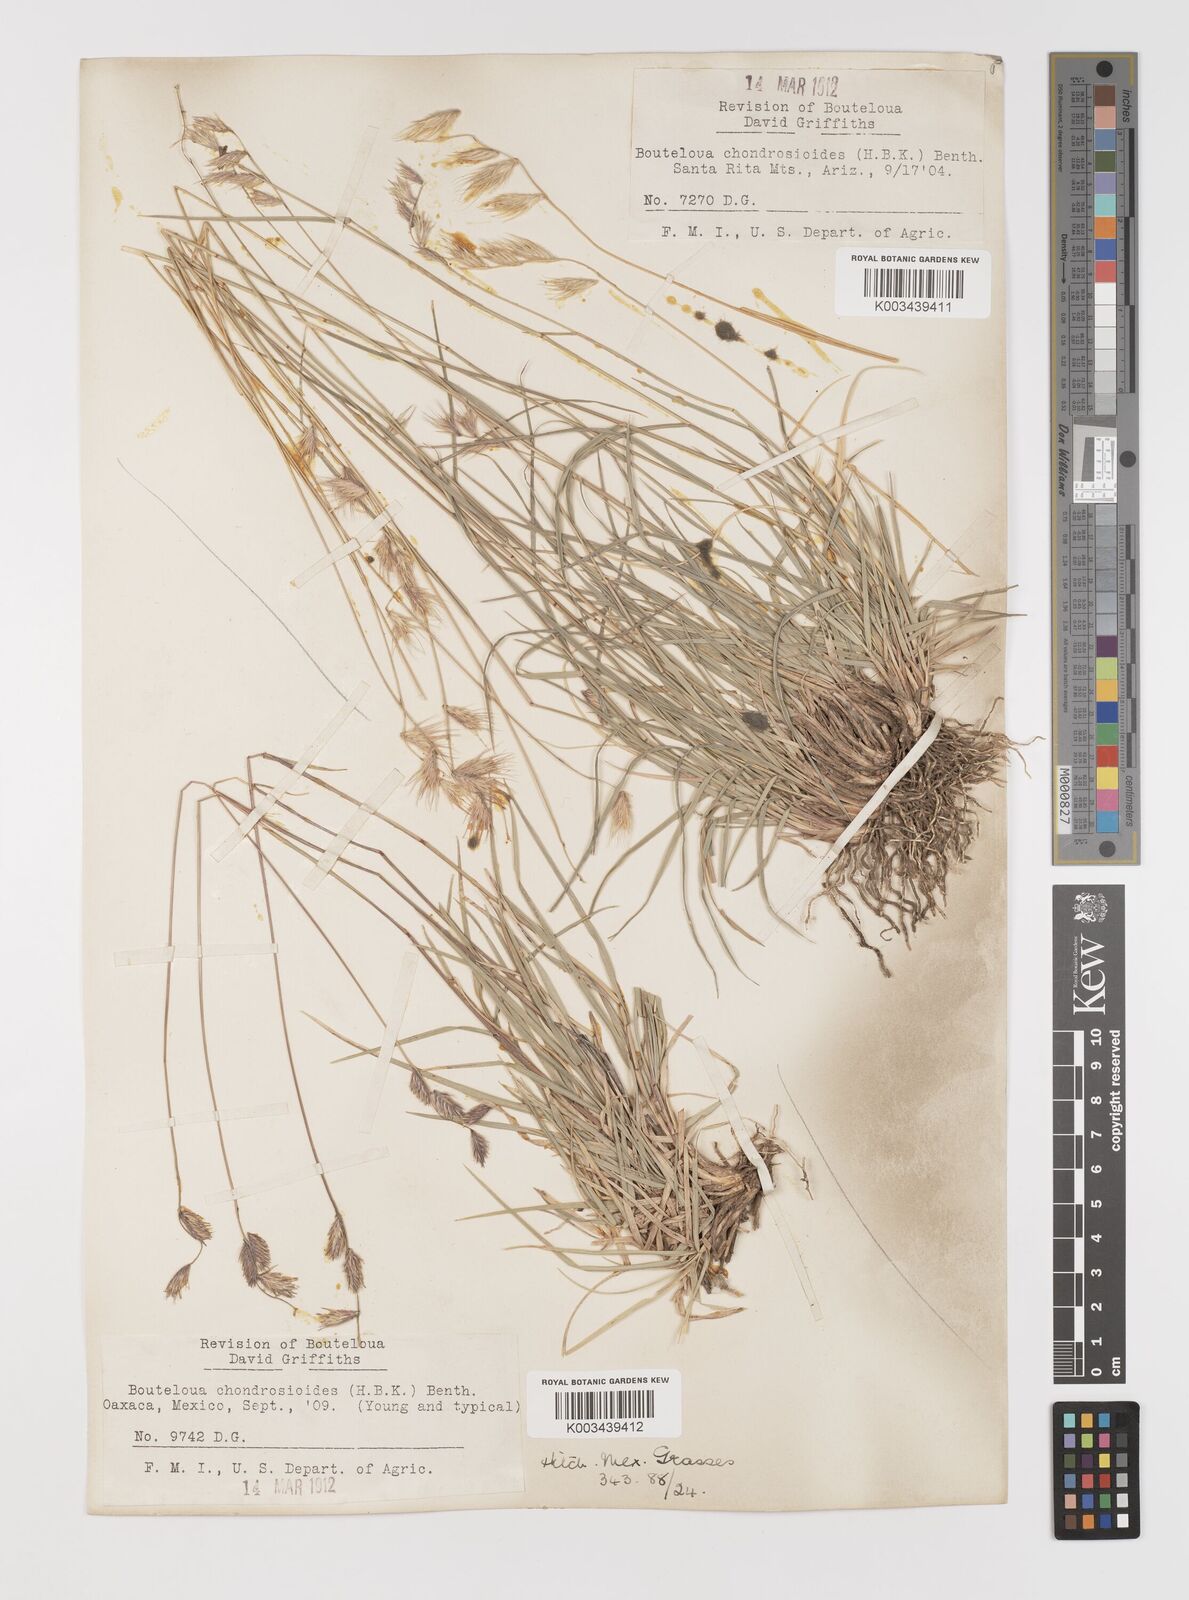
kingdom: Plantae
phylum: Tracheophyta
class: Liliopsida
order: Poales
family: Poaceae
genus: Bouteloua
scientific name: Bouteloua chondrosioides
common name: Sprucetop grama
